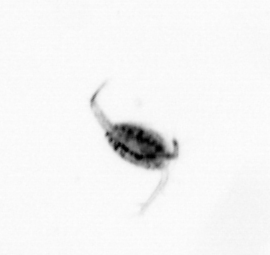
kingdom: Animalia
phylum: Arthropoda
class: Copepoda
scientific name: Copepoda
